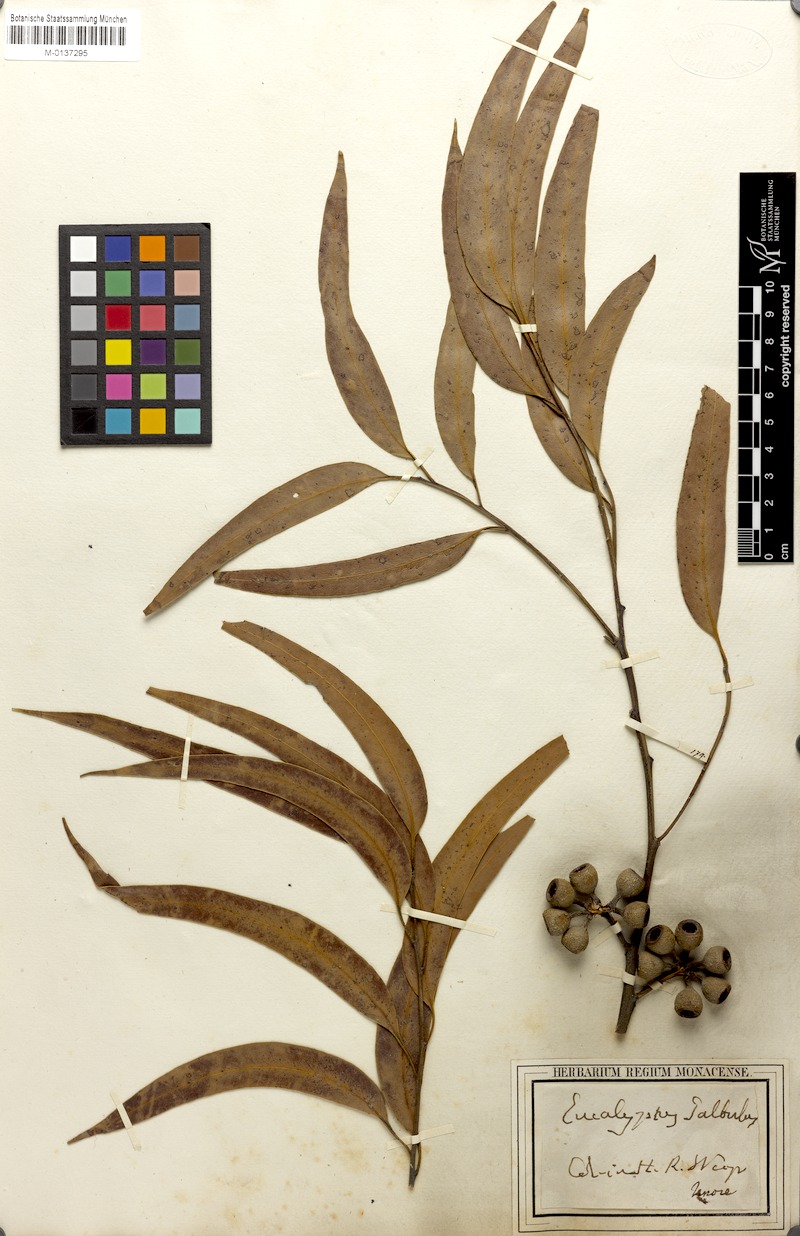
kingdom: Plantae
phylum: Tracheophyta
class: Magnoliopsida
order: Myrtales
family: Myrtaceae
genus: Eucalyptus
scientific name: Eucalyptus gardneri
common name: Blue mallet
